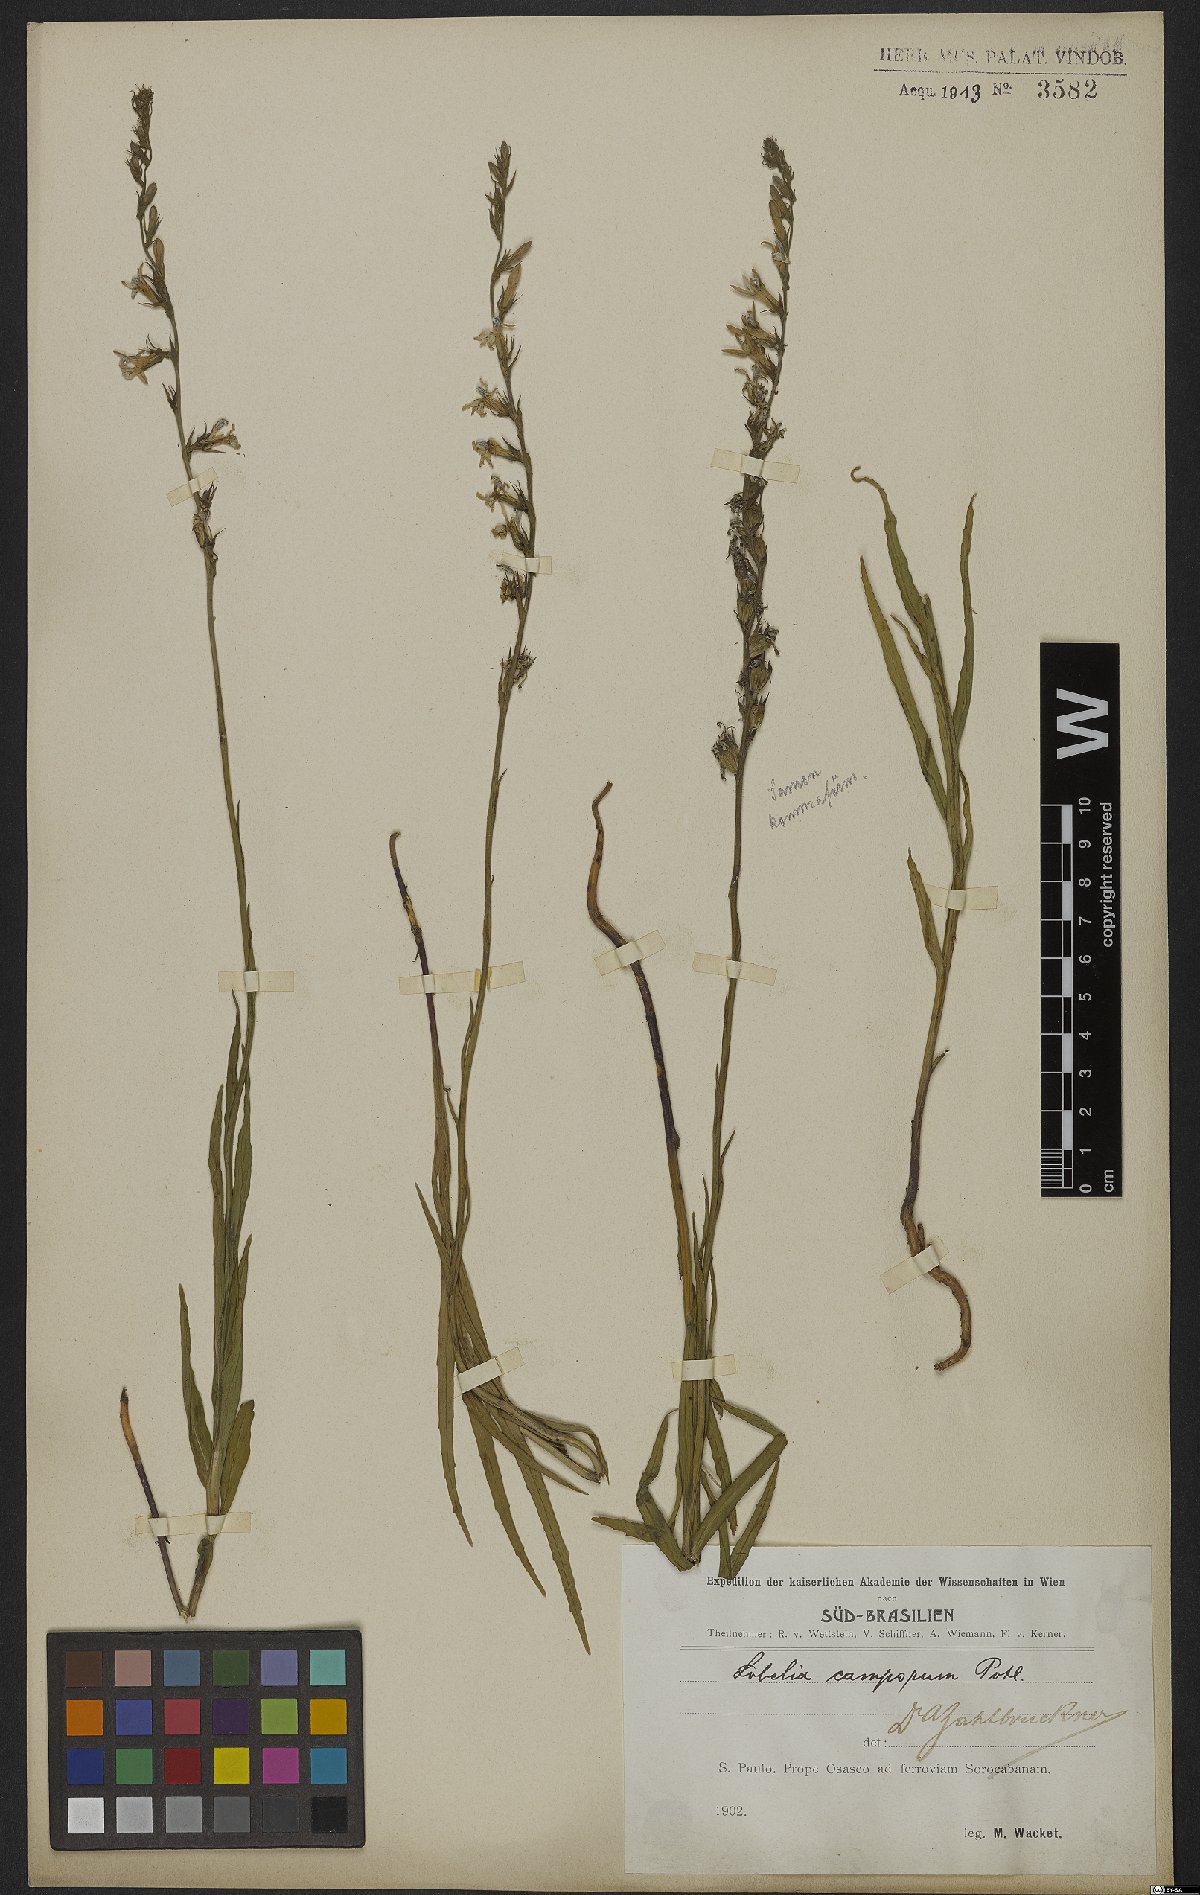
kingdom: Plantae
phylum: Tracheophyta
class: Magnoliopsida
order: Asterales
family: Campanulaceae
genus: Lobelia
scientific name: Lobelia camporum
